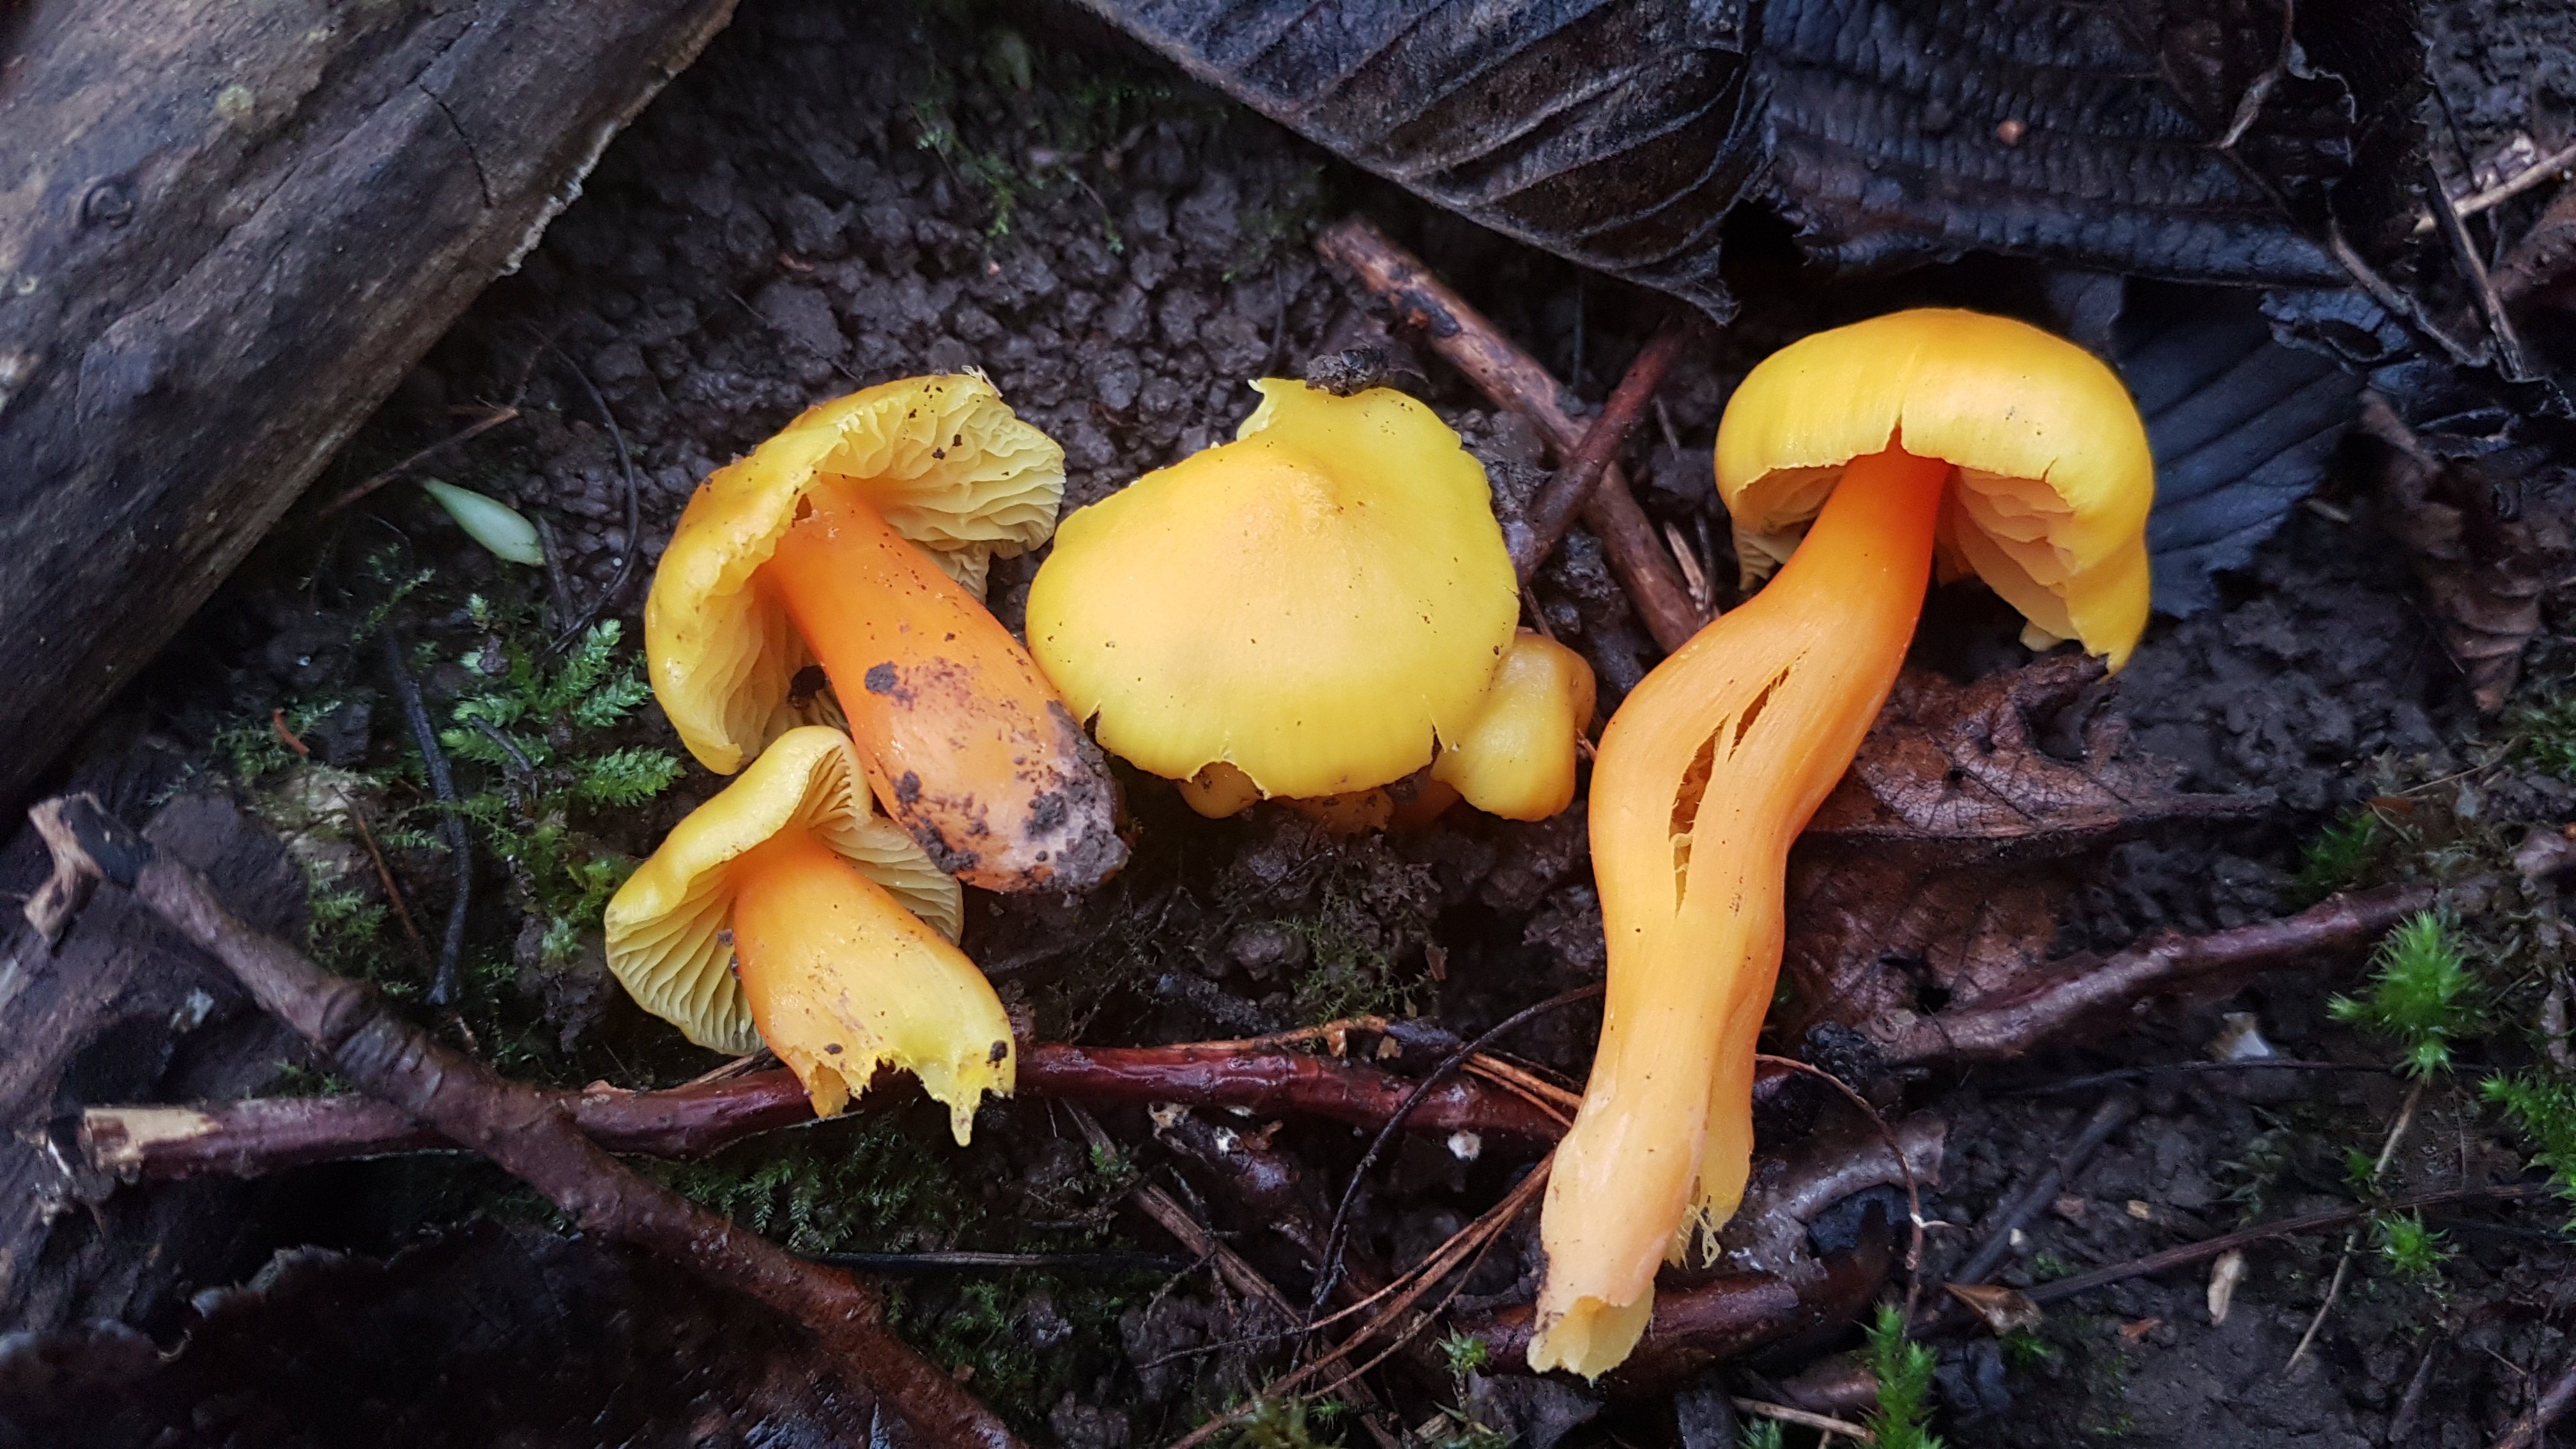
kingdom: Fungi
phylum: Basidiomycota
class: Agaricomycetes
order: Agaricales
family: Hygrophoraceae
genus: Hygrocybe
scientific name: Hygrocybe quieta
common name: tæge-vokshat
